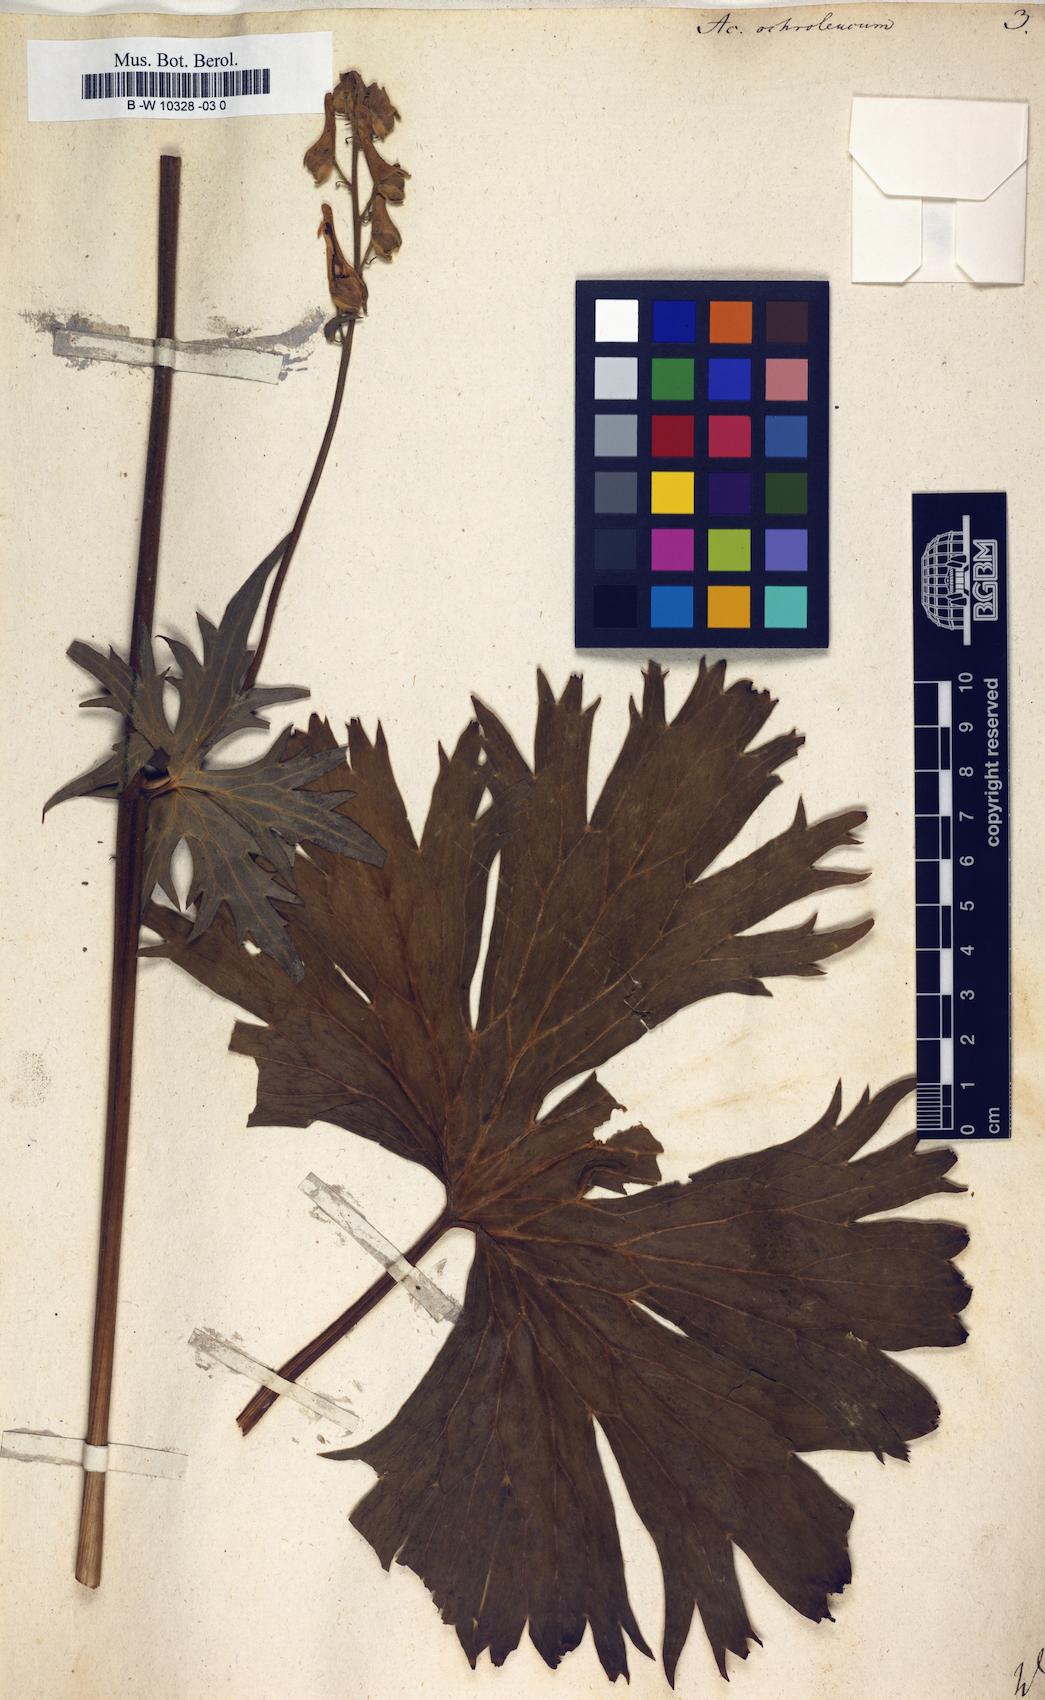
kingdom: Plantae
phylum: Tracheophyta
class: Magnoliopsida
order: Ranunculales
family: Ranunculaceae
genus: Aconitum
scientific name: Aconitum orientale
